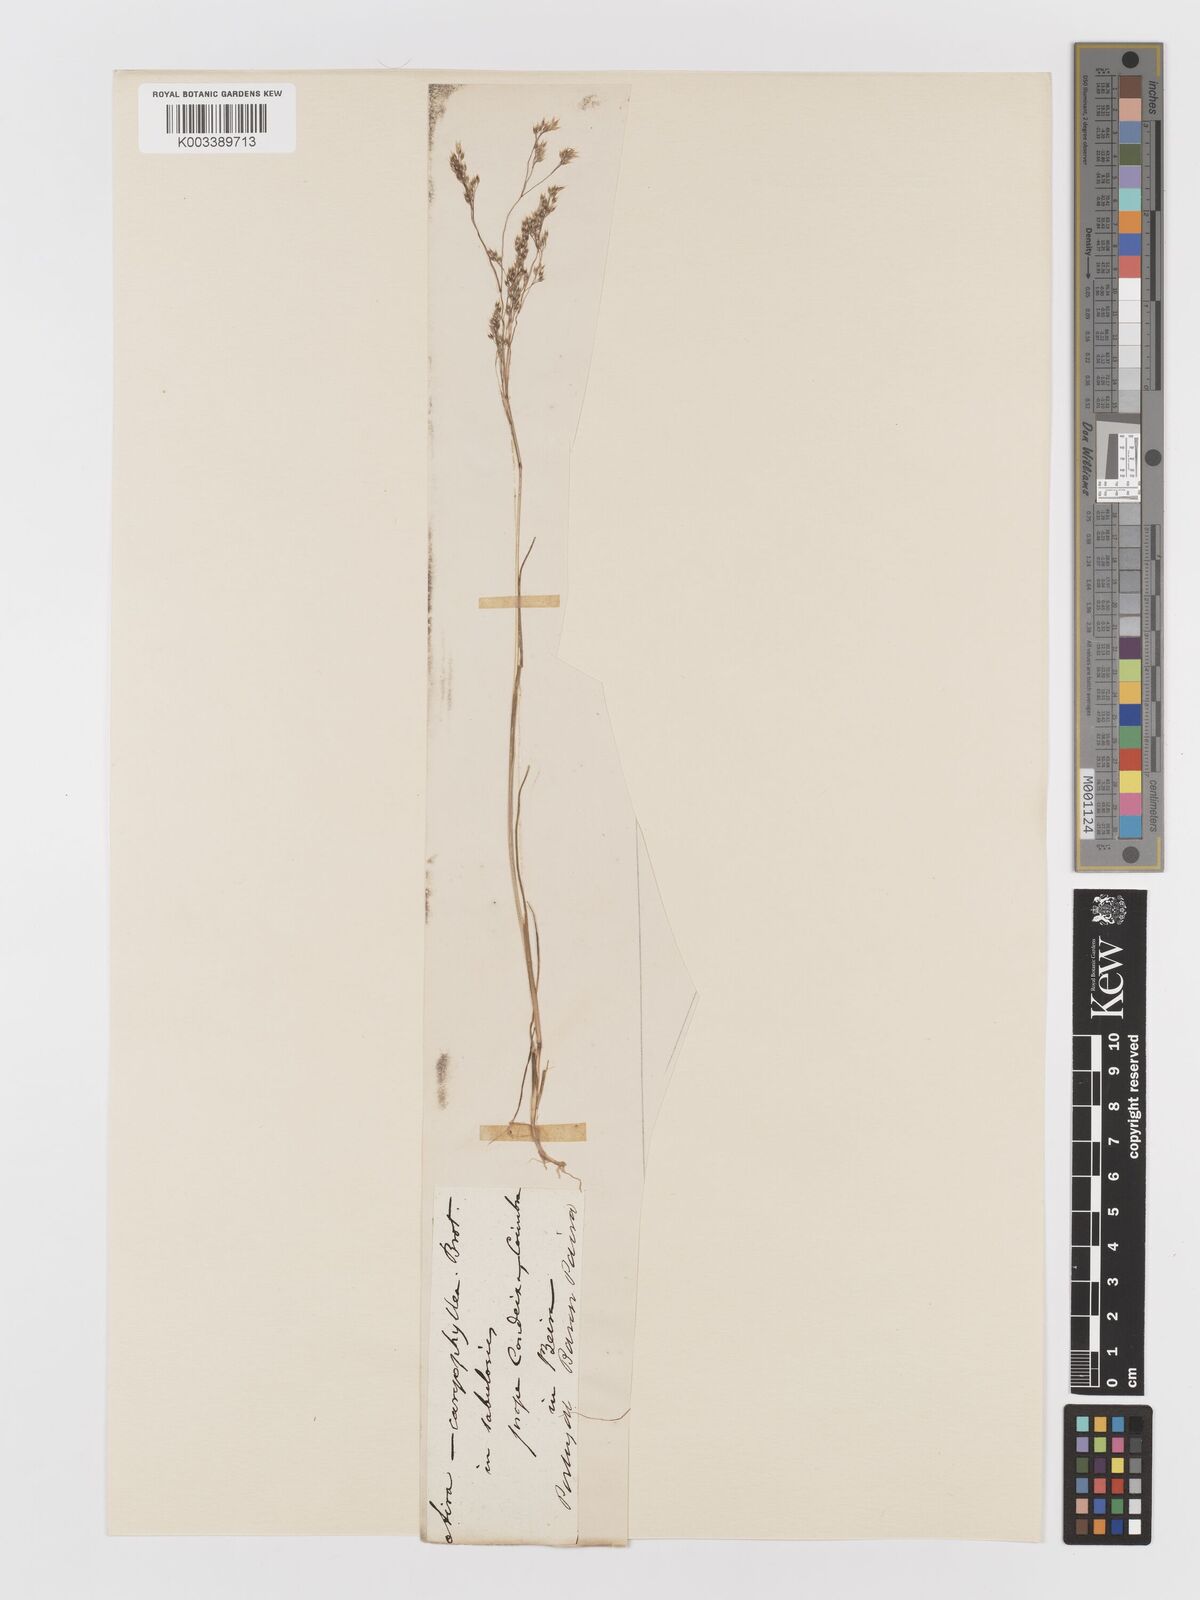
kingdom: Plantae
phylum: Tracheophyta
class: Liliopsida
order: Poales
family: Poaceae
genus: Aira
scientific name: Aira caryophyllea
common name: Silver hairgrass
